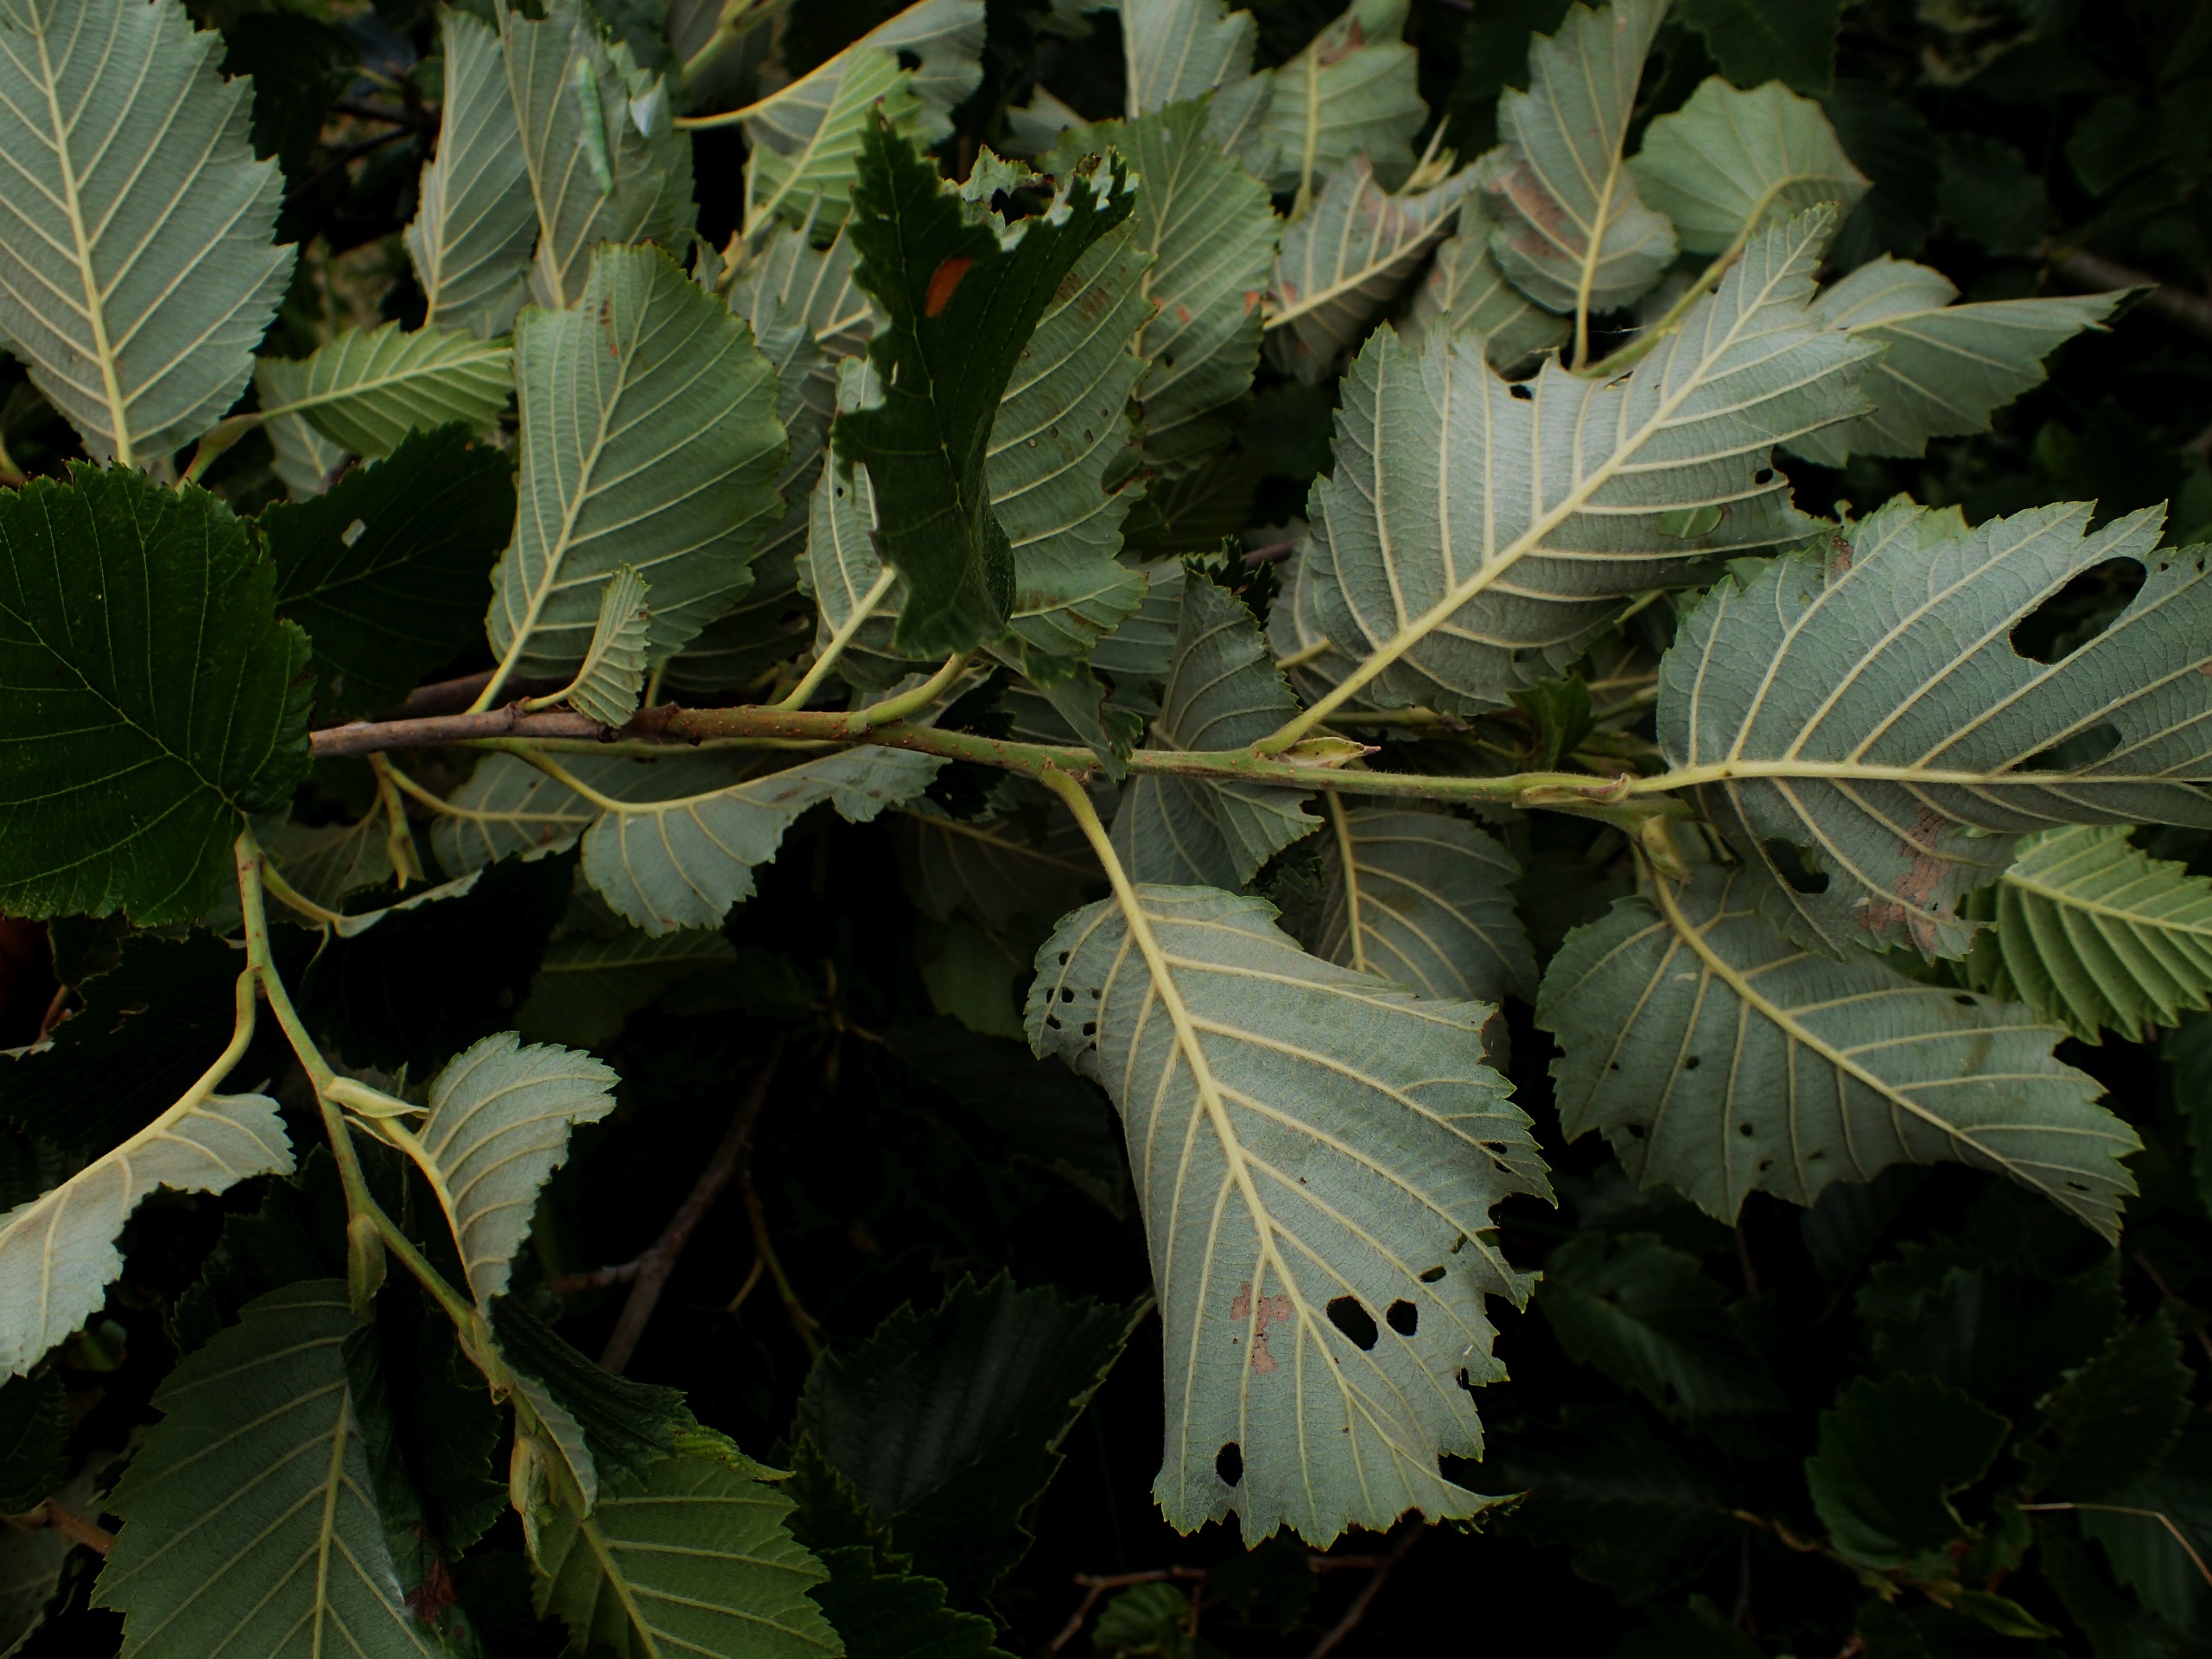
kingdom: Plantae
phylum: Tracheophyta
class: Magnoliopsida
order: Fagales
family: Betulaceae
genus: Alnus
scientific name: Alnus incana
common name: Grå-el/hvid-el
